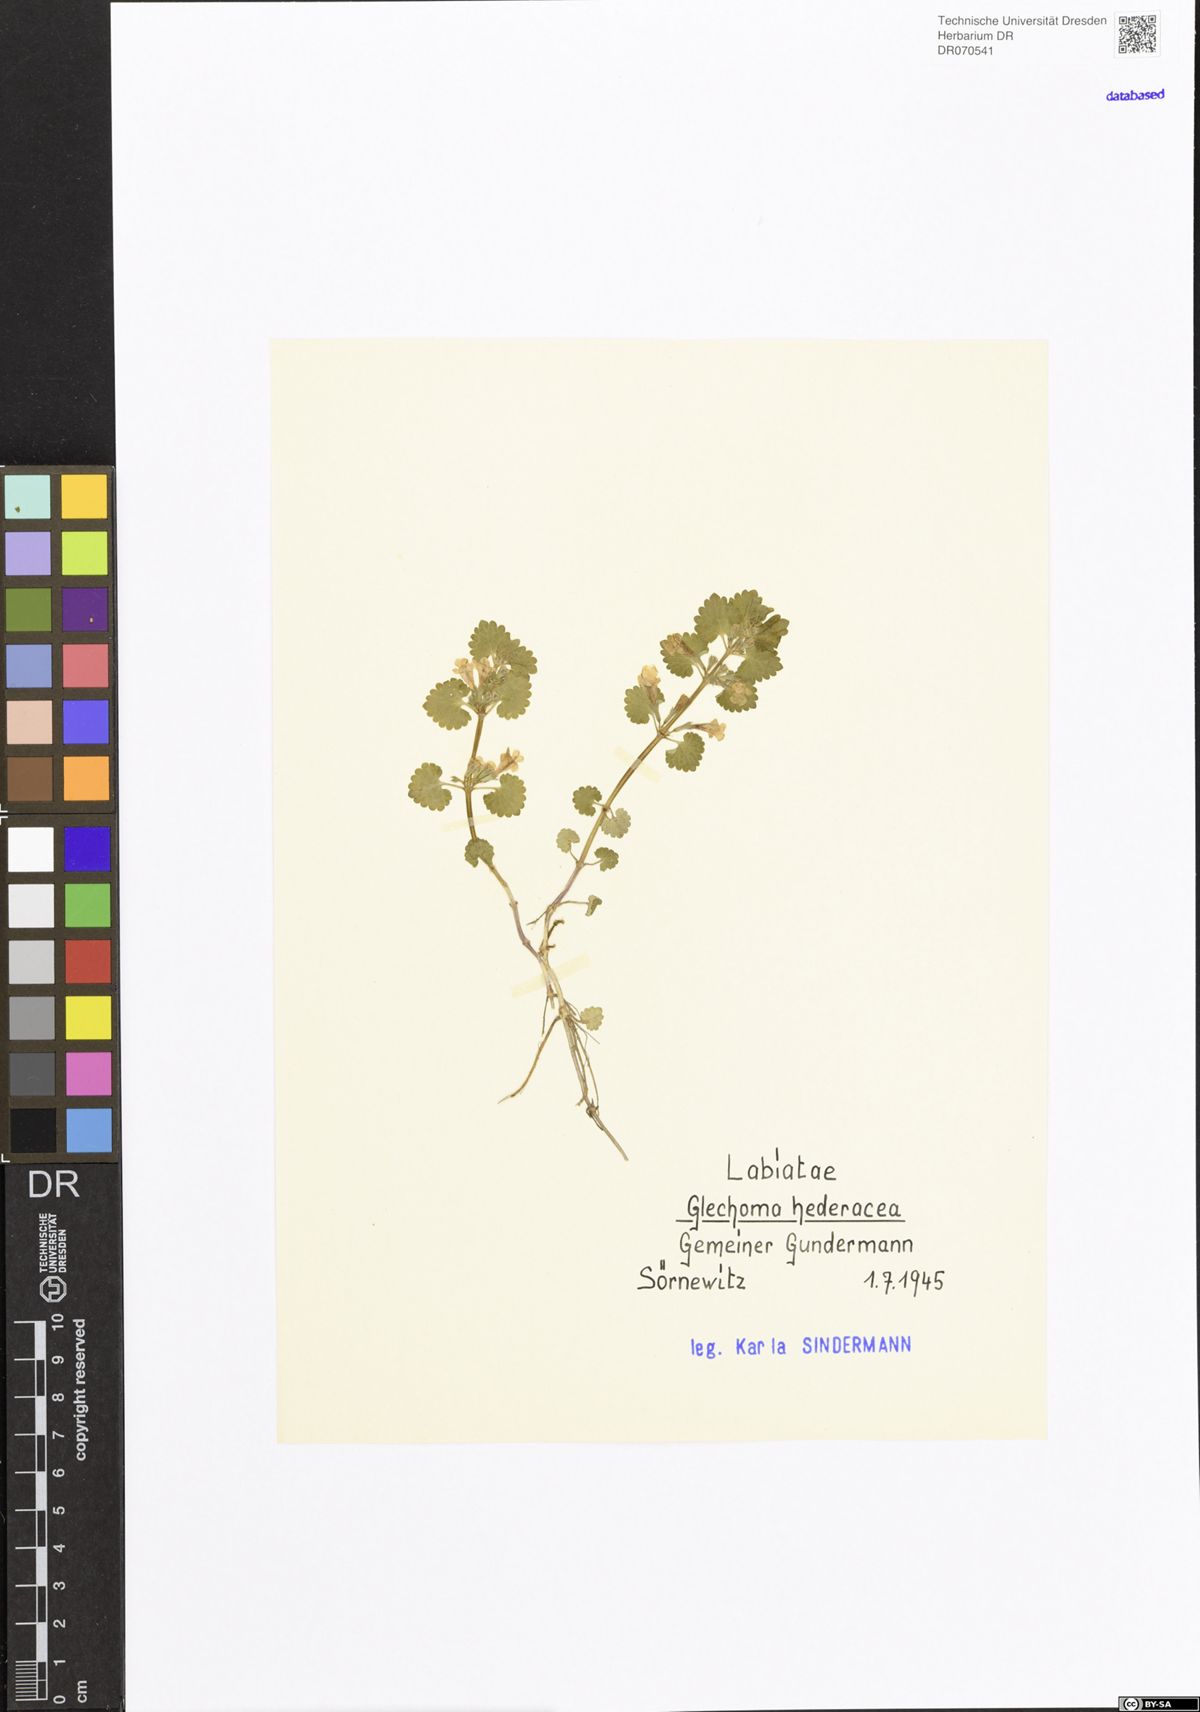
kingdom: Plantae
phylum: Tracheophyta
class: Magnoliopsida
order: Lamiales
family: Lamiaceae
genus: Glechoma
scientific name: Glechoma hederacea
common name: Ground ivy
